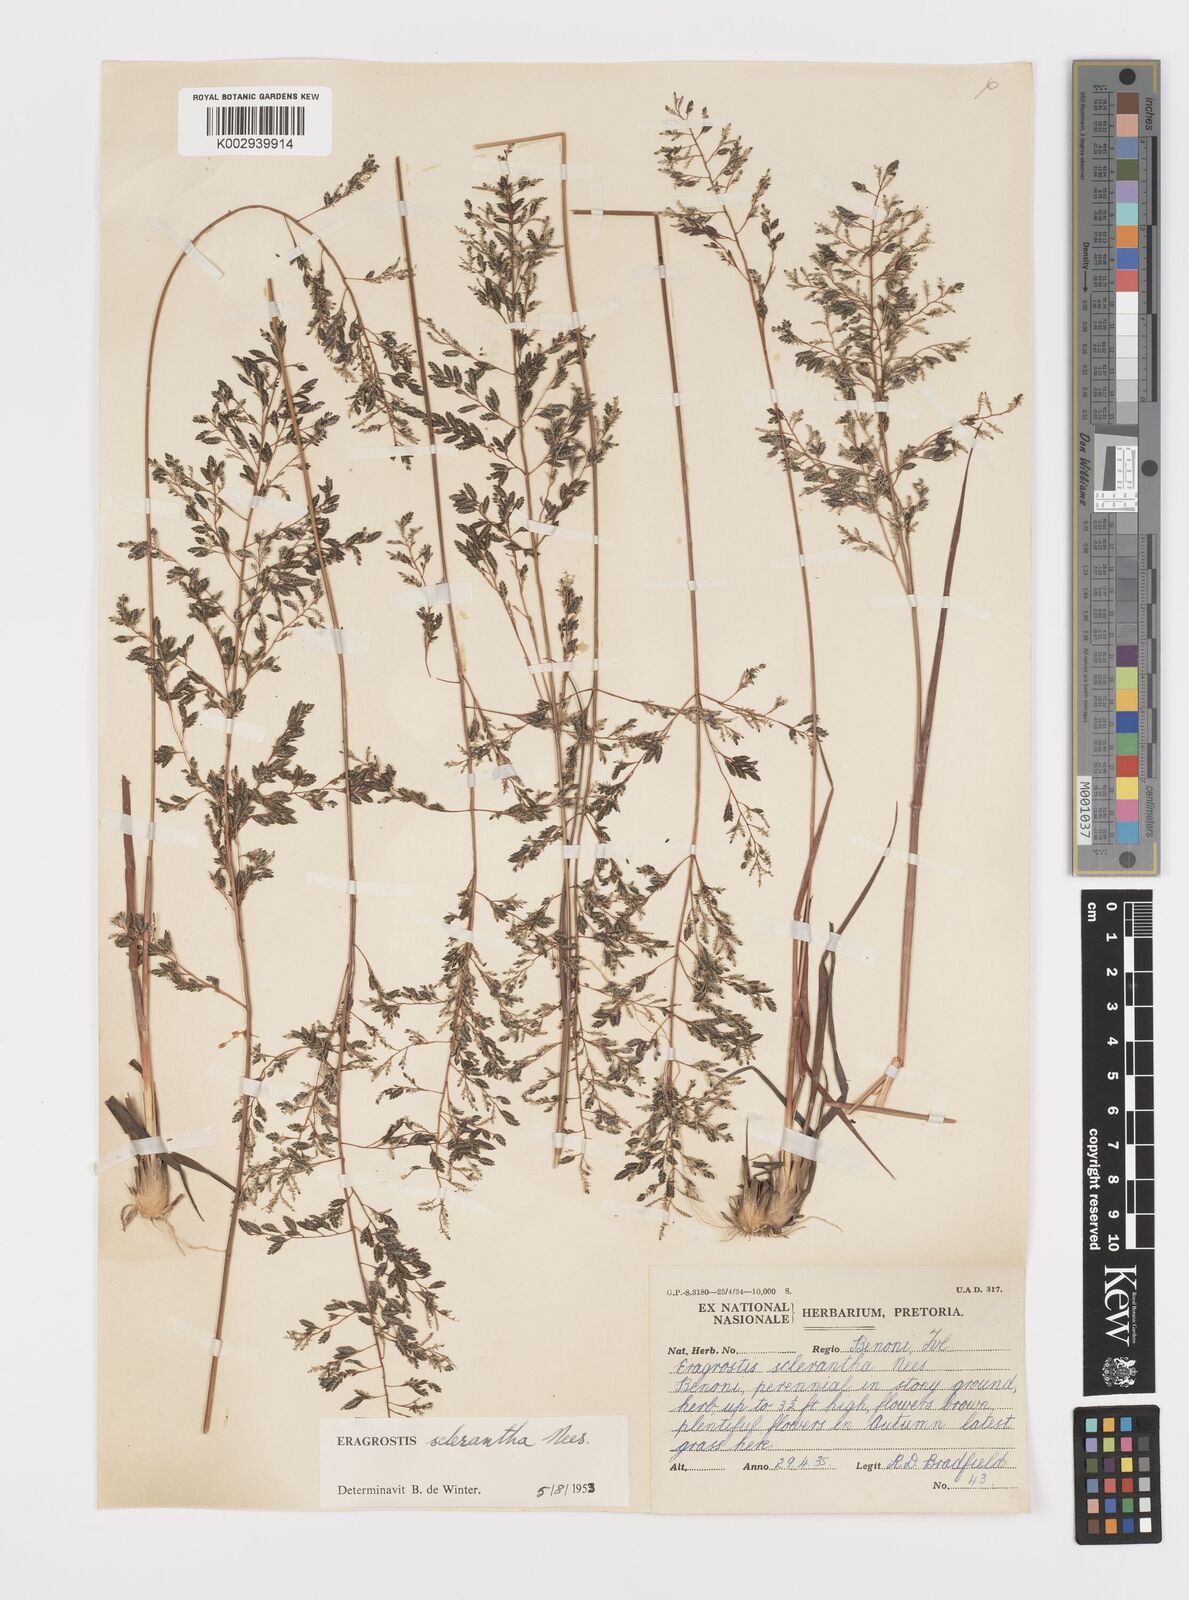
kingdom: Plantae
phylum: Tracheophyta
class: Liliopsida
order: Poales
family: Poaceae
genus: Eragrostis
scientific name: Eragrostis sclerantha
